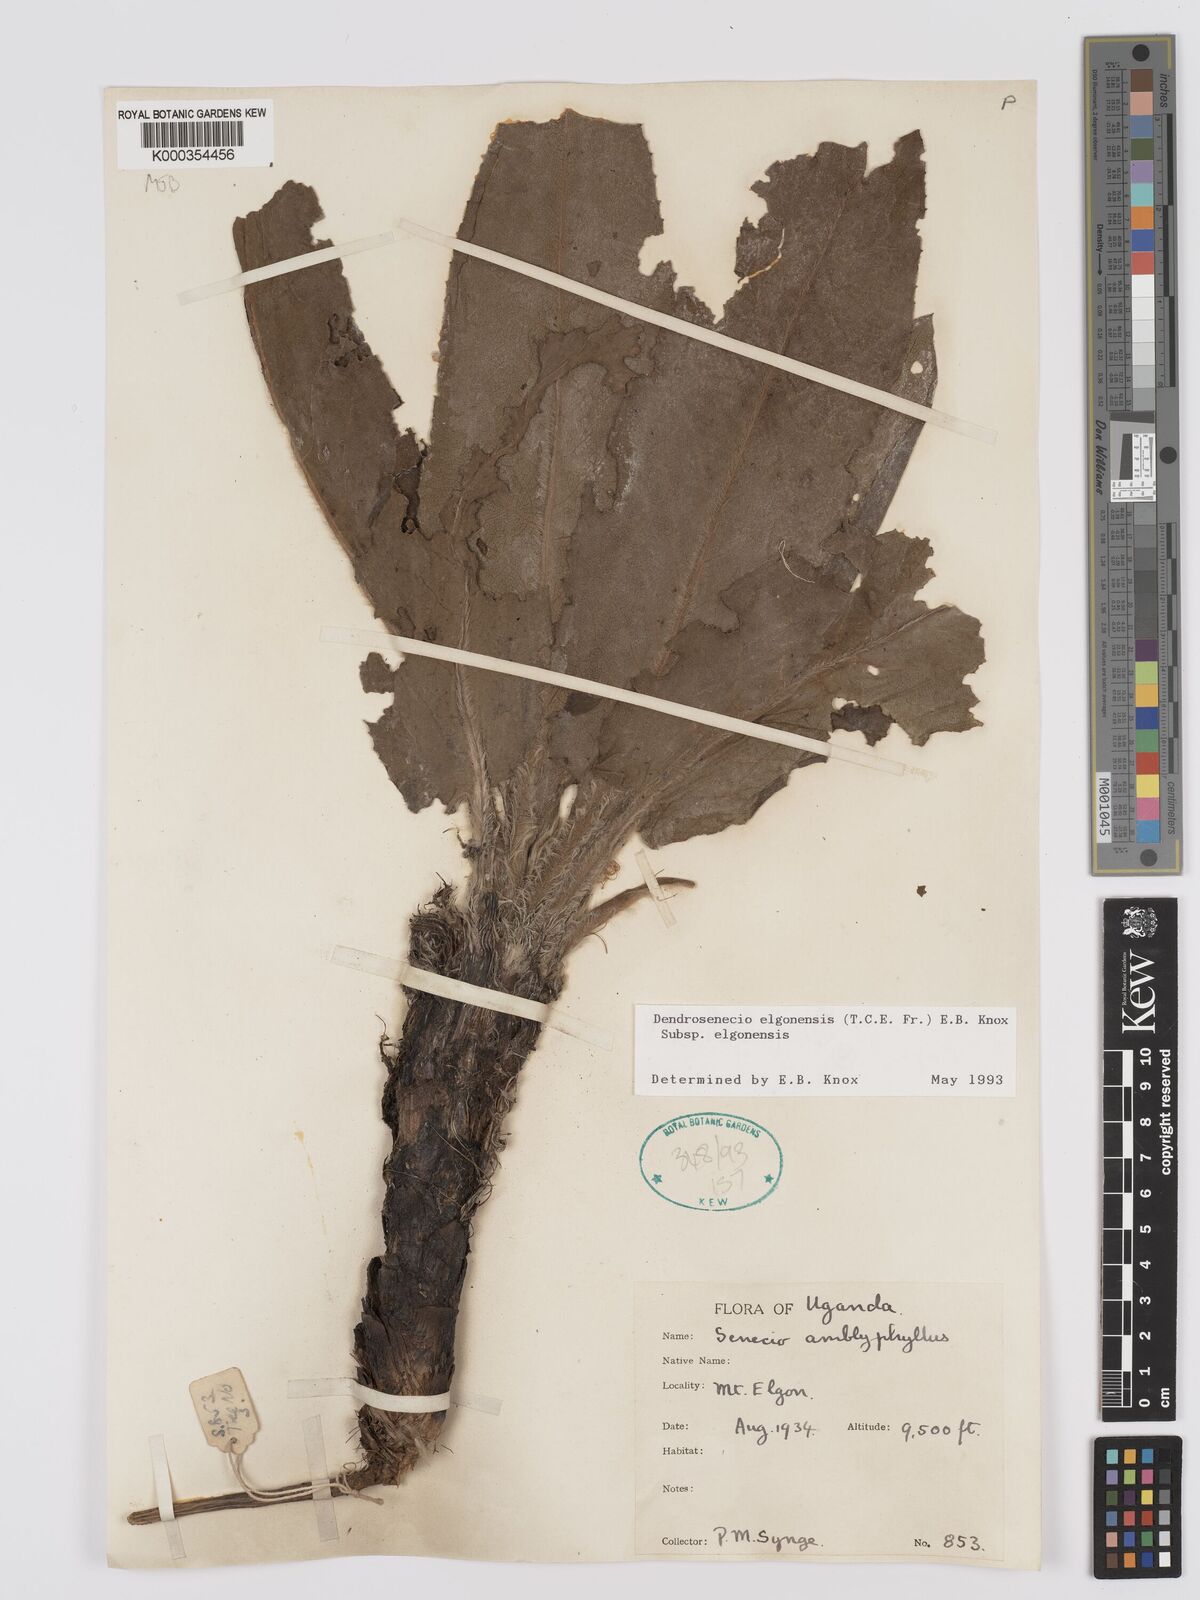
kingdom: Plantae
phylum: Tracheophyta
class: Magnoliopsida
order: Asterales
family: Asteraceae
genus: Dendrosenecio
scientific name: Dendrosenecio elgonensis
